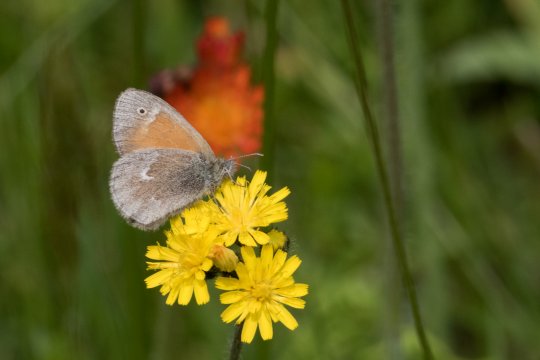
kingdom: Animalia
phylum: Arthropoda
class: Insecta
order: Lepidoptera
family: Nymphalidae
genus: Coenonympha
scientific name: Coenonympha tullia
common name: Large Heath
